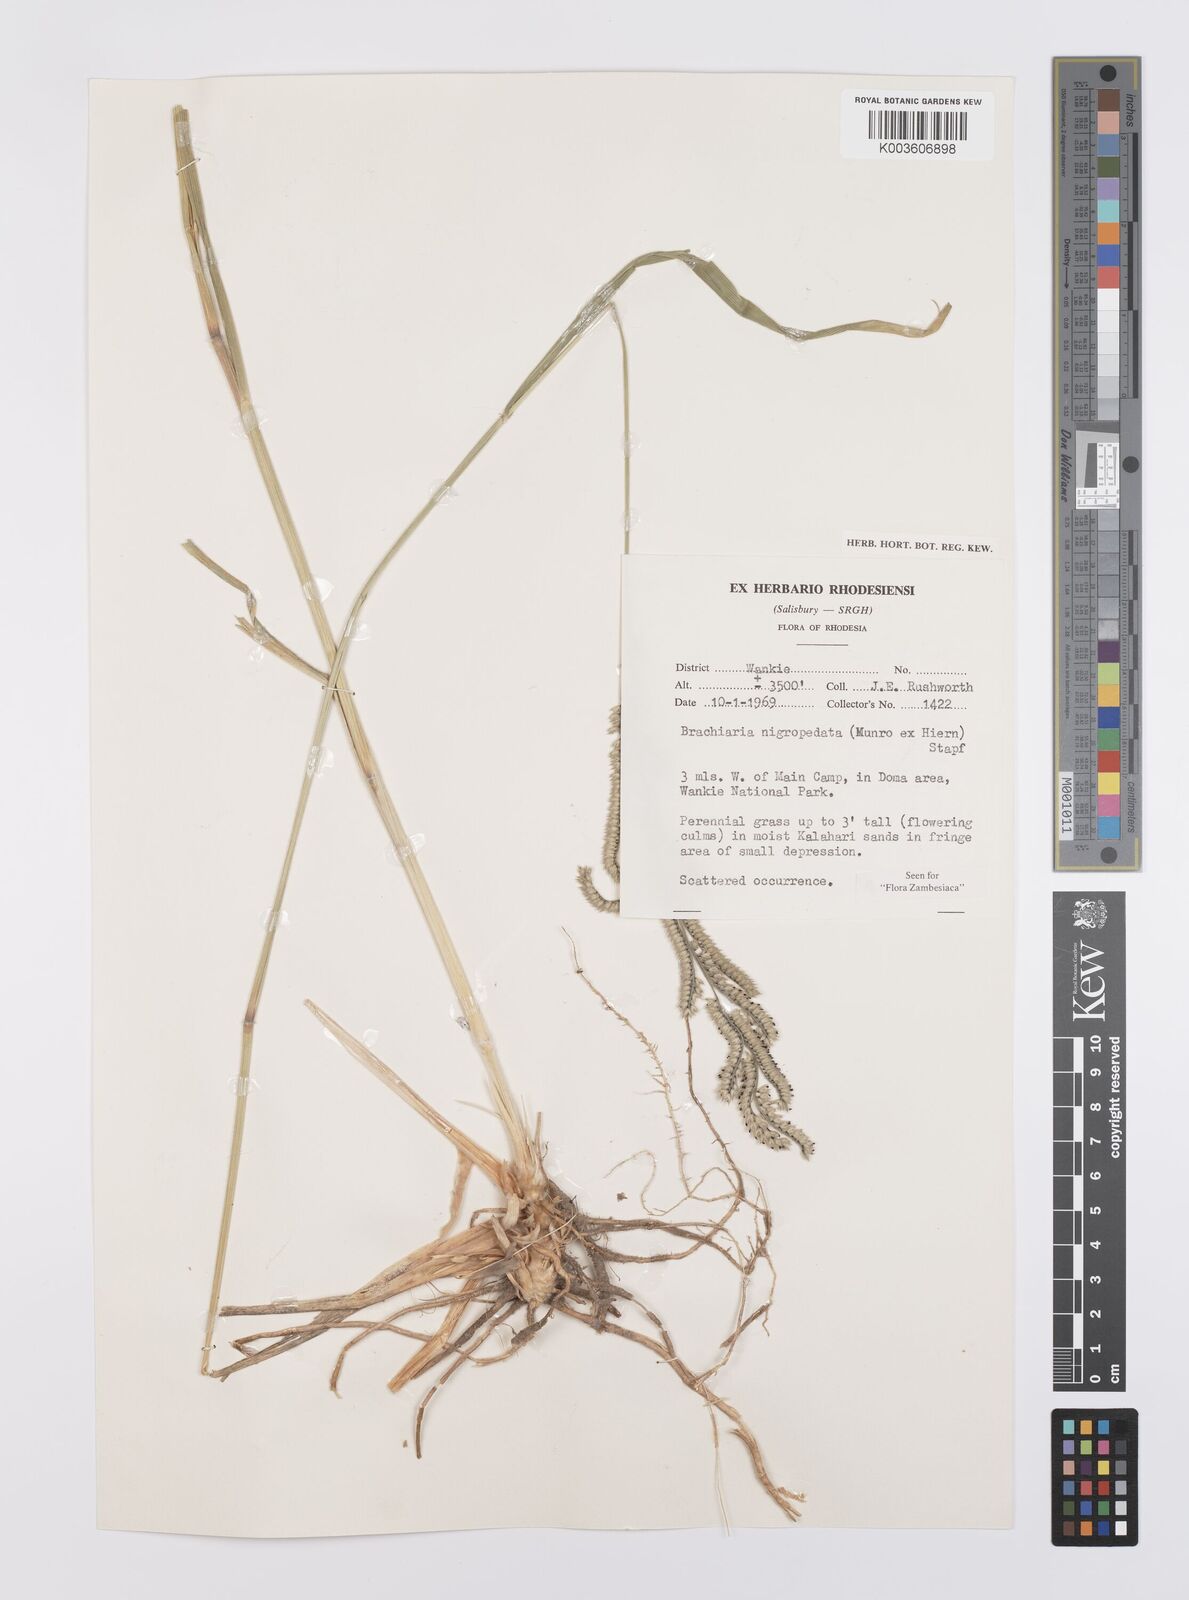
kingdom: Plantae
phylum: Tracheophyta
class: Liliopsida
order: Poales
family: Poaceae
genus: Urochloa
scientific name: Urochloa nigropedata
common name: Spotted signal grass
